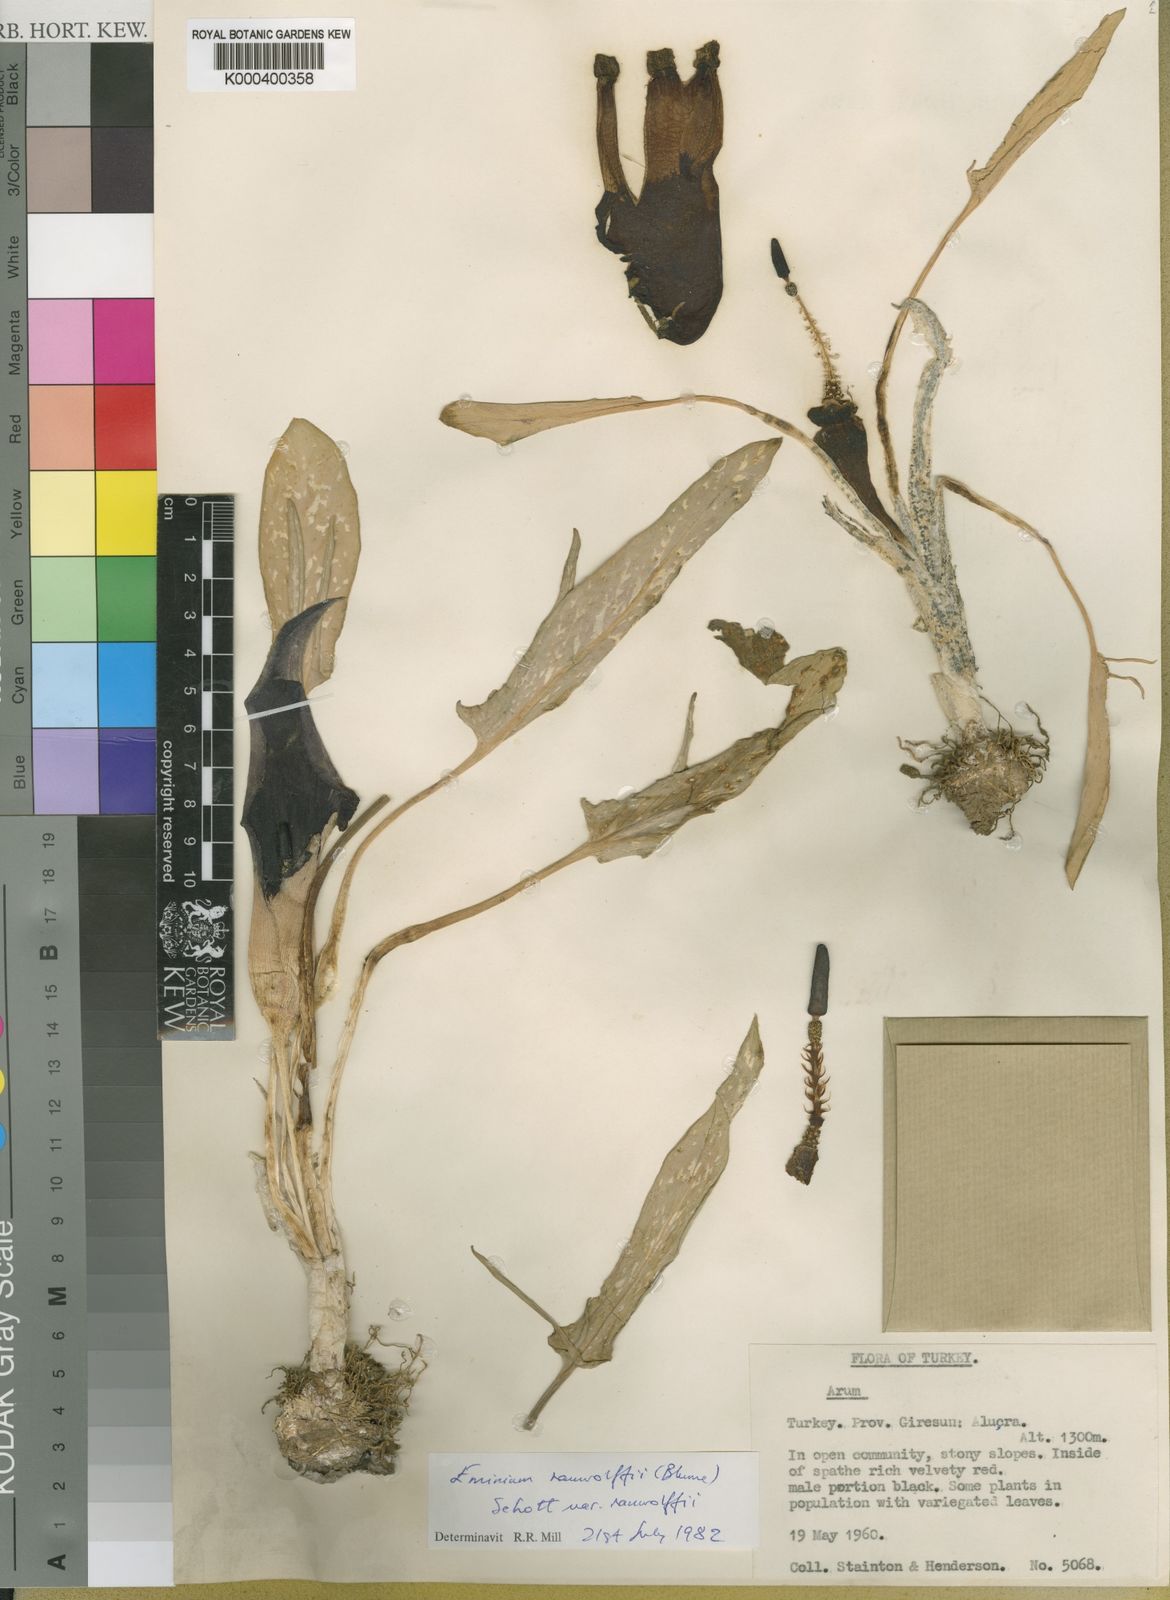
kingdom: Plantae
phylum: Tracheophyta
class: Liliopsida
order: Alismatales
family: Araceae
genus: Eminium
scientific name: Eminium rauwolffii
